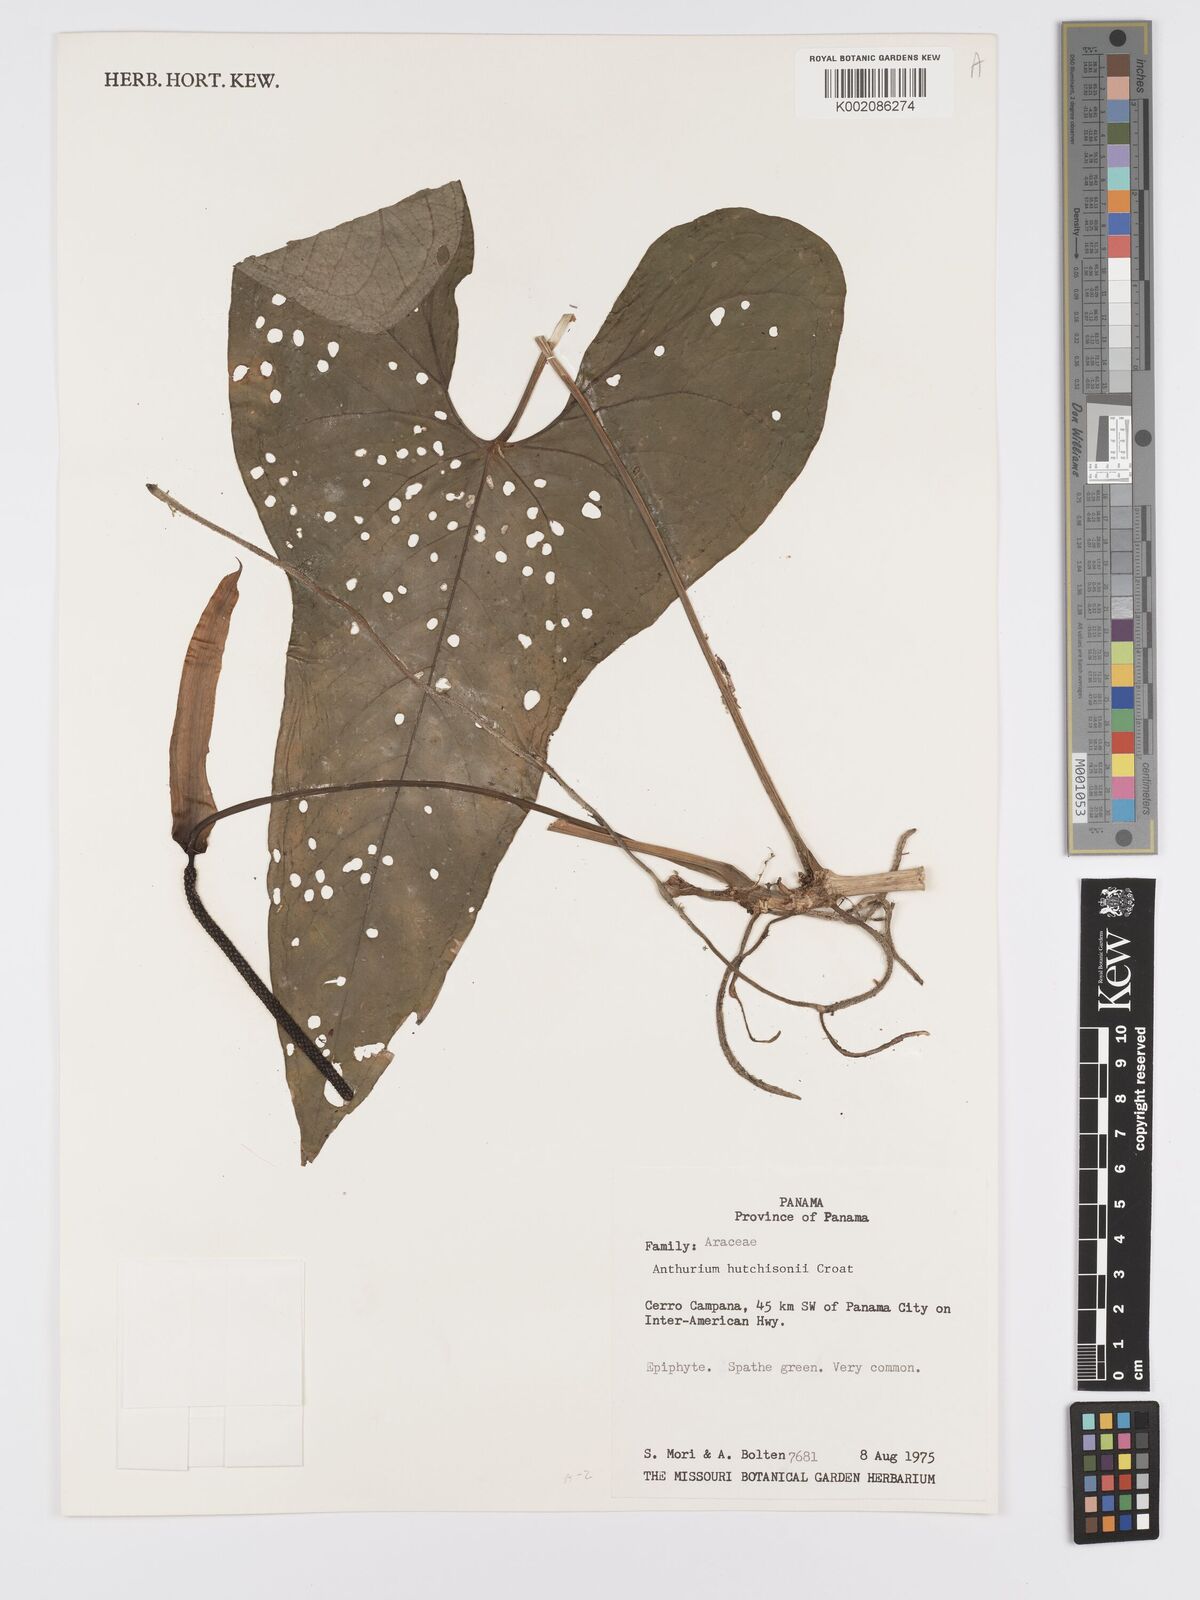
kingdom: Plantae
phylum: Tracheophyta
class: Liliopsida
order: Alismatales
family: Araceae
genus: Anthurium
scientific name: Anthurium hutchisonii
